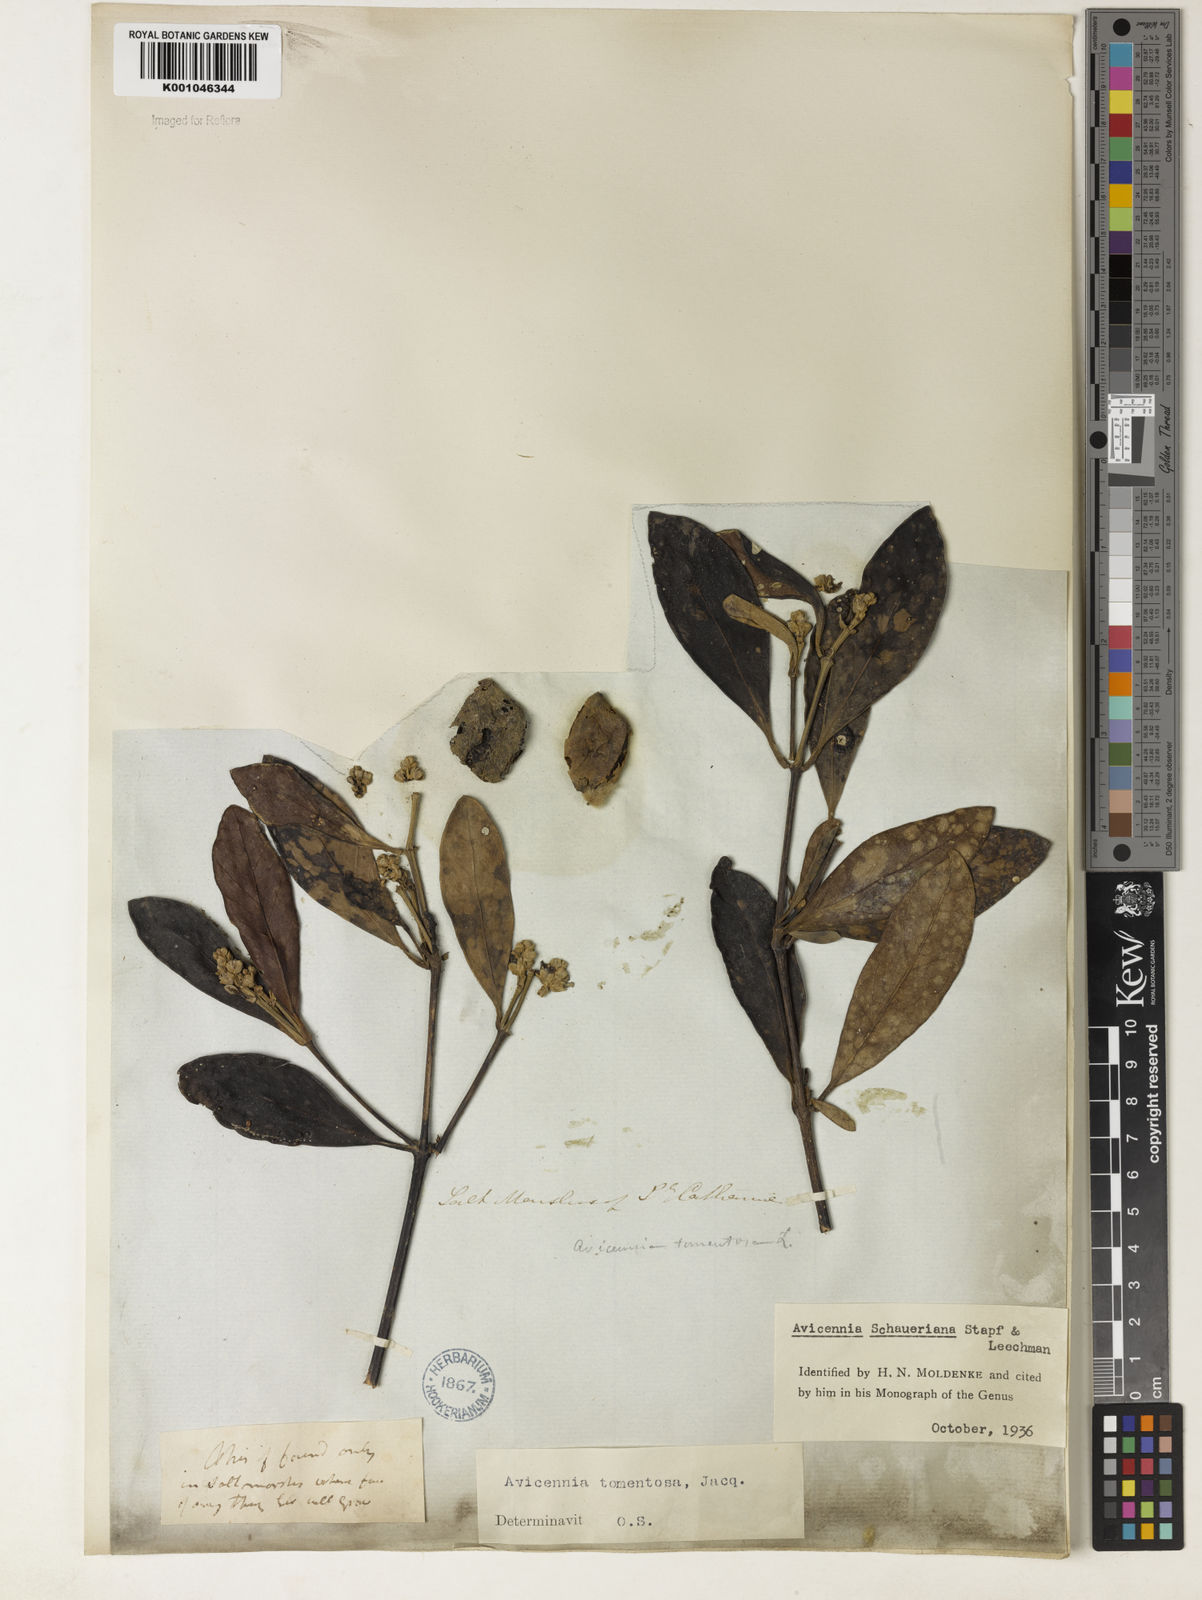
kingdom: Plantae
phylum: Tracheophyta
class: Magnoliopsida
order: Lamiales
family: Acanthaceae
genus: Avicennia
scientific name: Avicennia schaueriana
